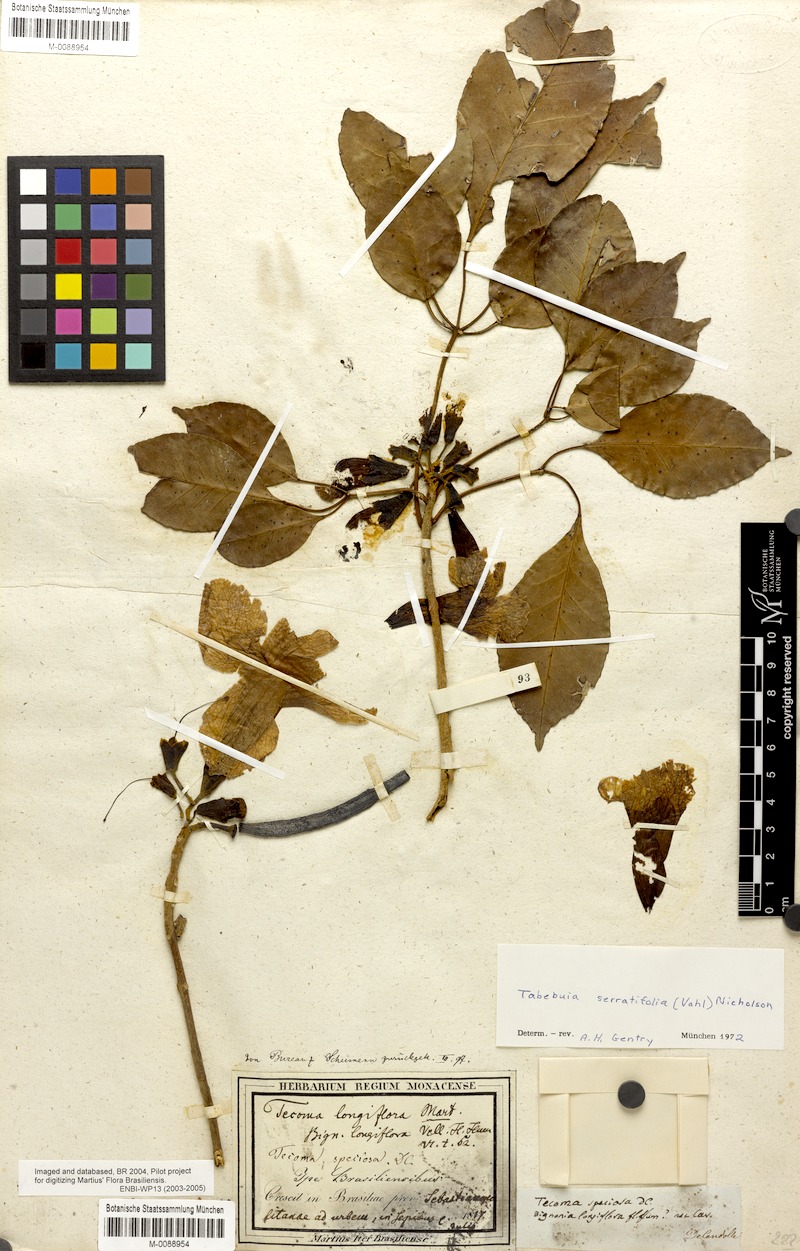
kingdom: Plantae
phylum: Tracheophyta
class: Magnoliopsida
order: Lamiales
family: Bignoniaceae
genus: Handroanthus
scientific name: Handroanthus serratifolius
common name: Yellow ipe
